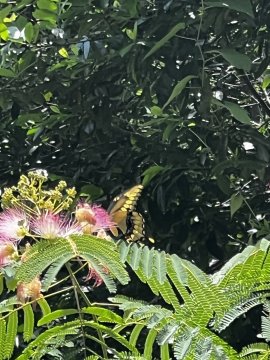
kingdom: Animalia
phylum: Arthropoda
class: Insecta
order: Lepidoptera
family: Papilionidae
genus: Papilio
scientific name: Papilio cresphontes
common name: Eastern Giant Swallowtail
